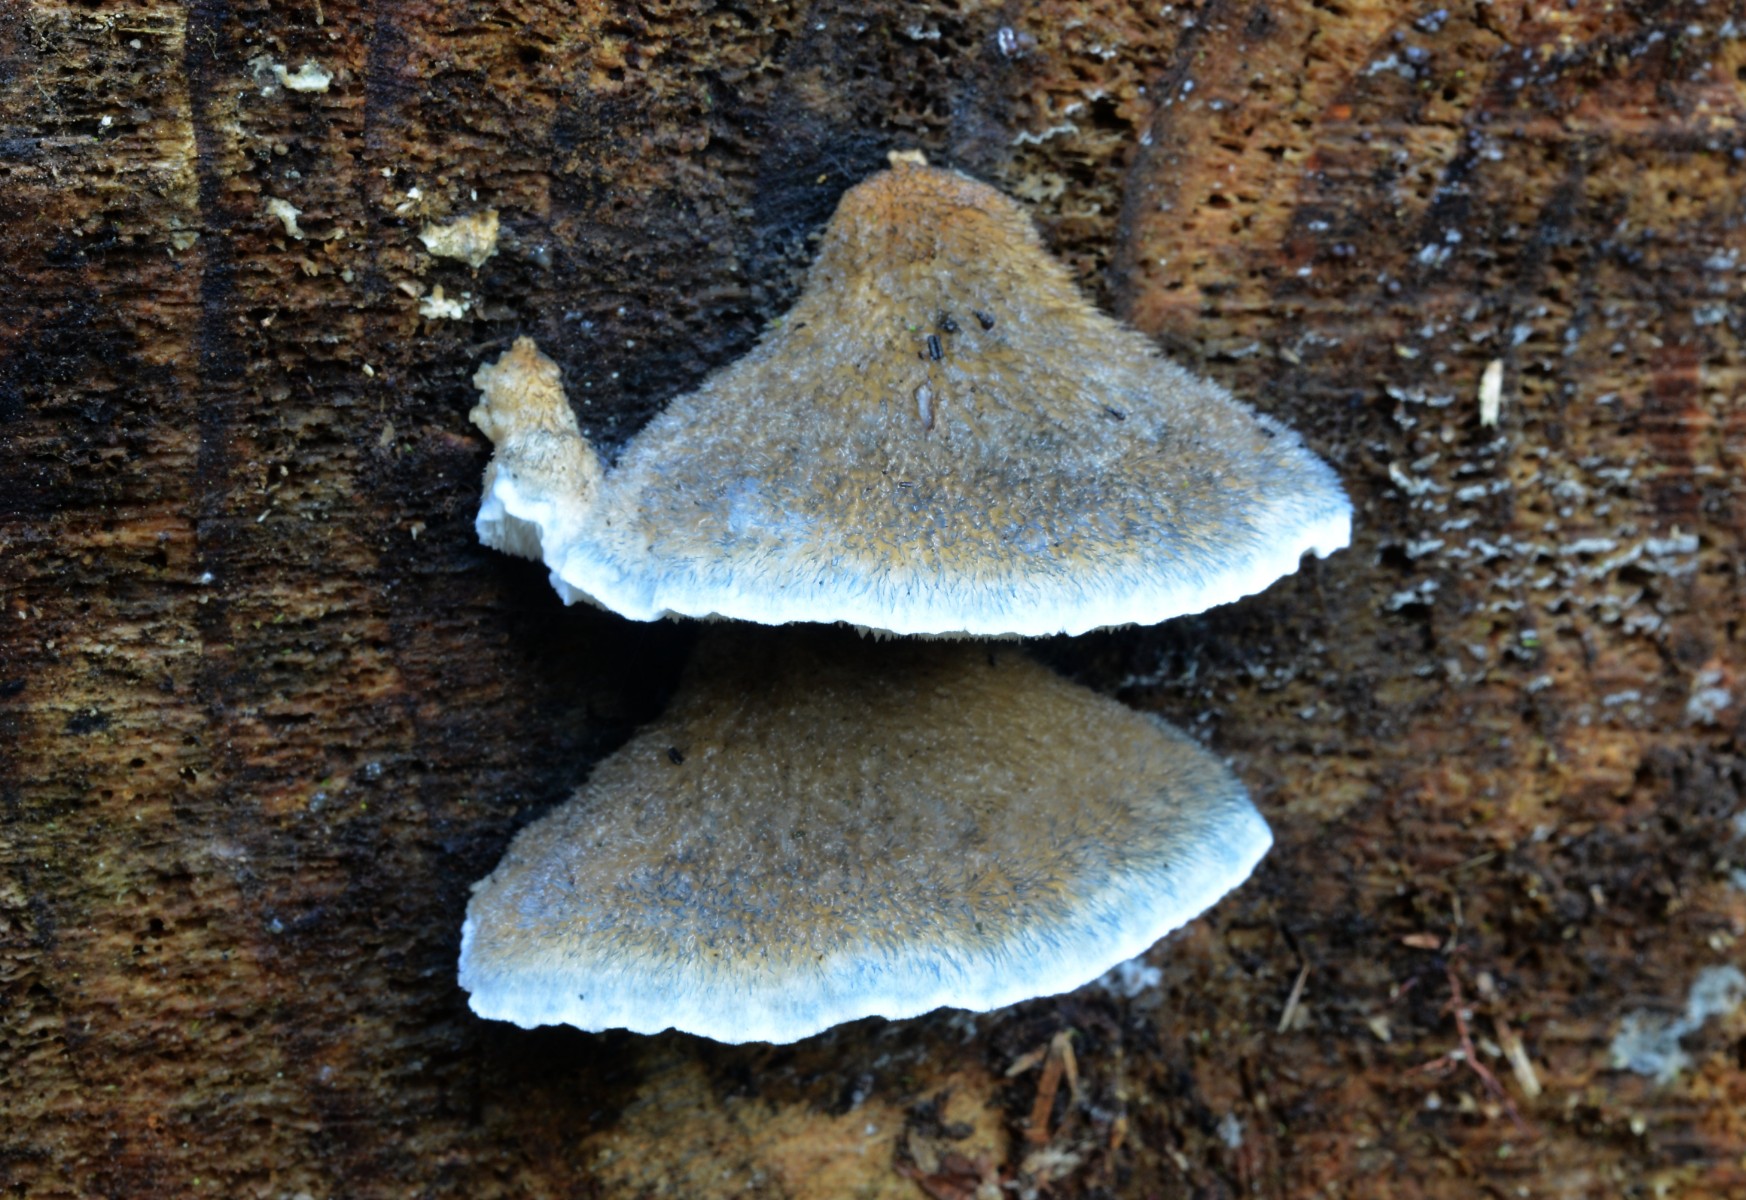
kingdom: Fungi
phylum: Basidiomycota
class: Agaricomycetes
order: Polyporales
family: Polyporaceae
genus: Cyanosporus
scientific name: Cyanosporus caesius
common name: blålig kødporesvamp
